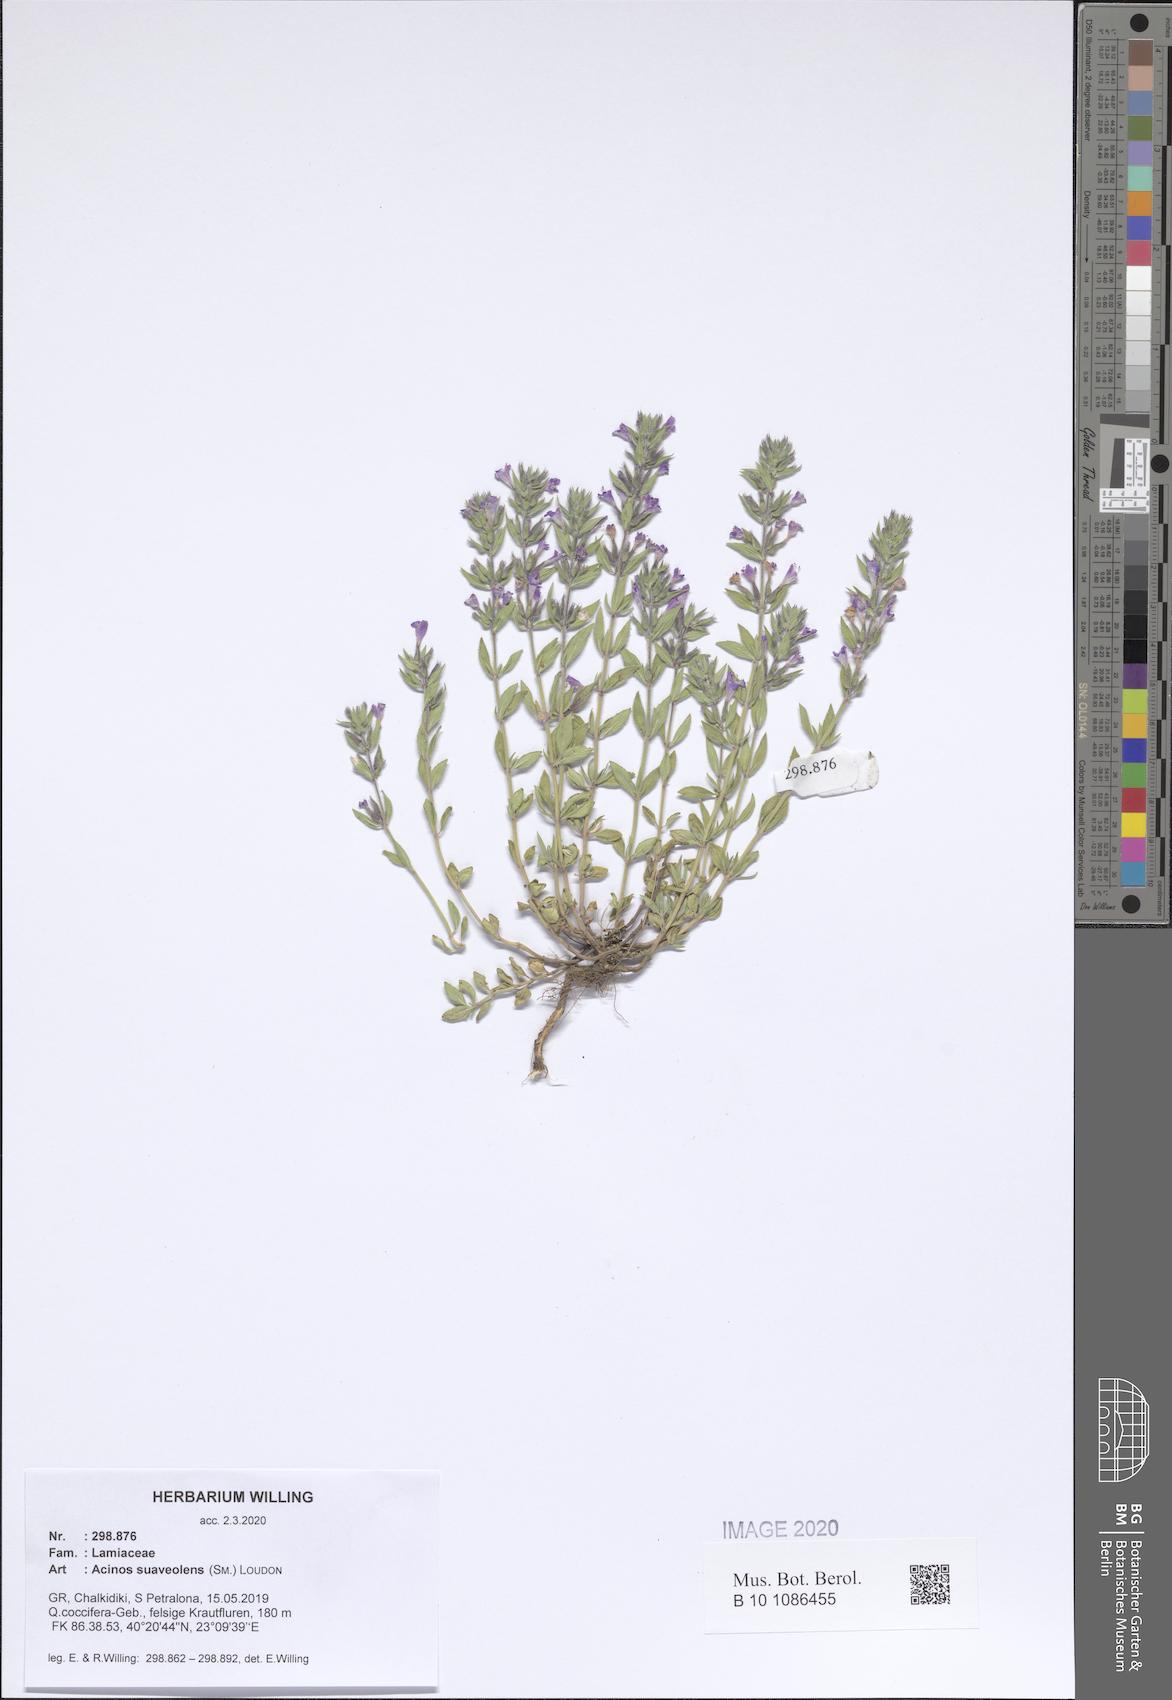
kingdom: Plantae
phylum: Tracheophyta
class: Magnoliopsida
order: Lamiales
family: Lamiaceae
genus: Clinopodium
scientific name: Clinopodium suaveolens
